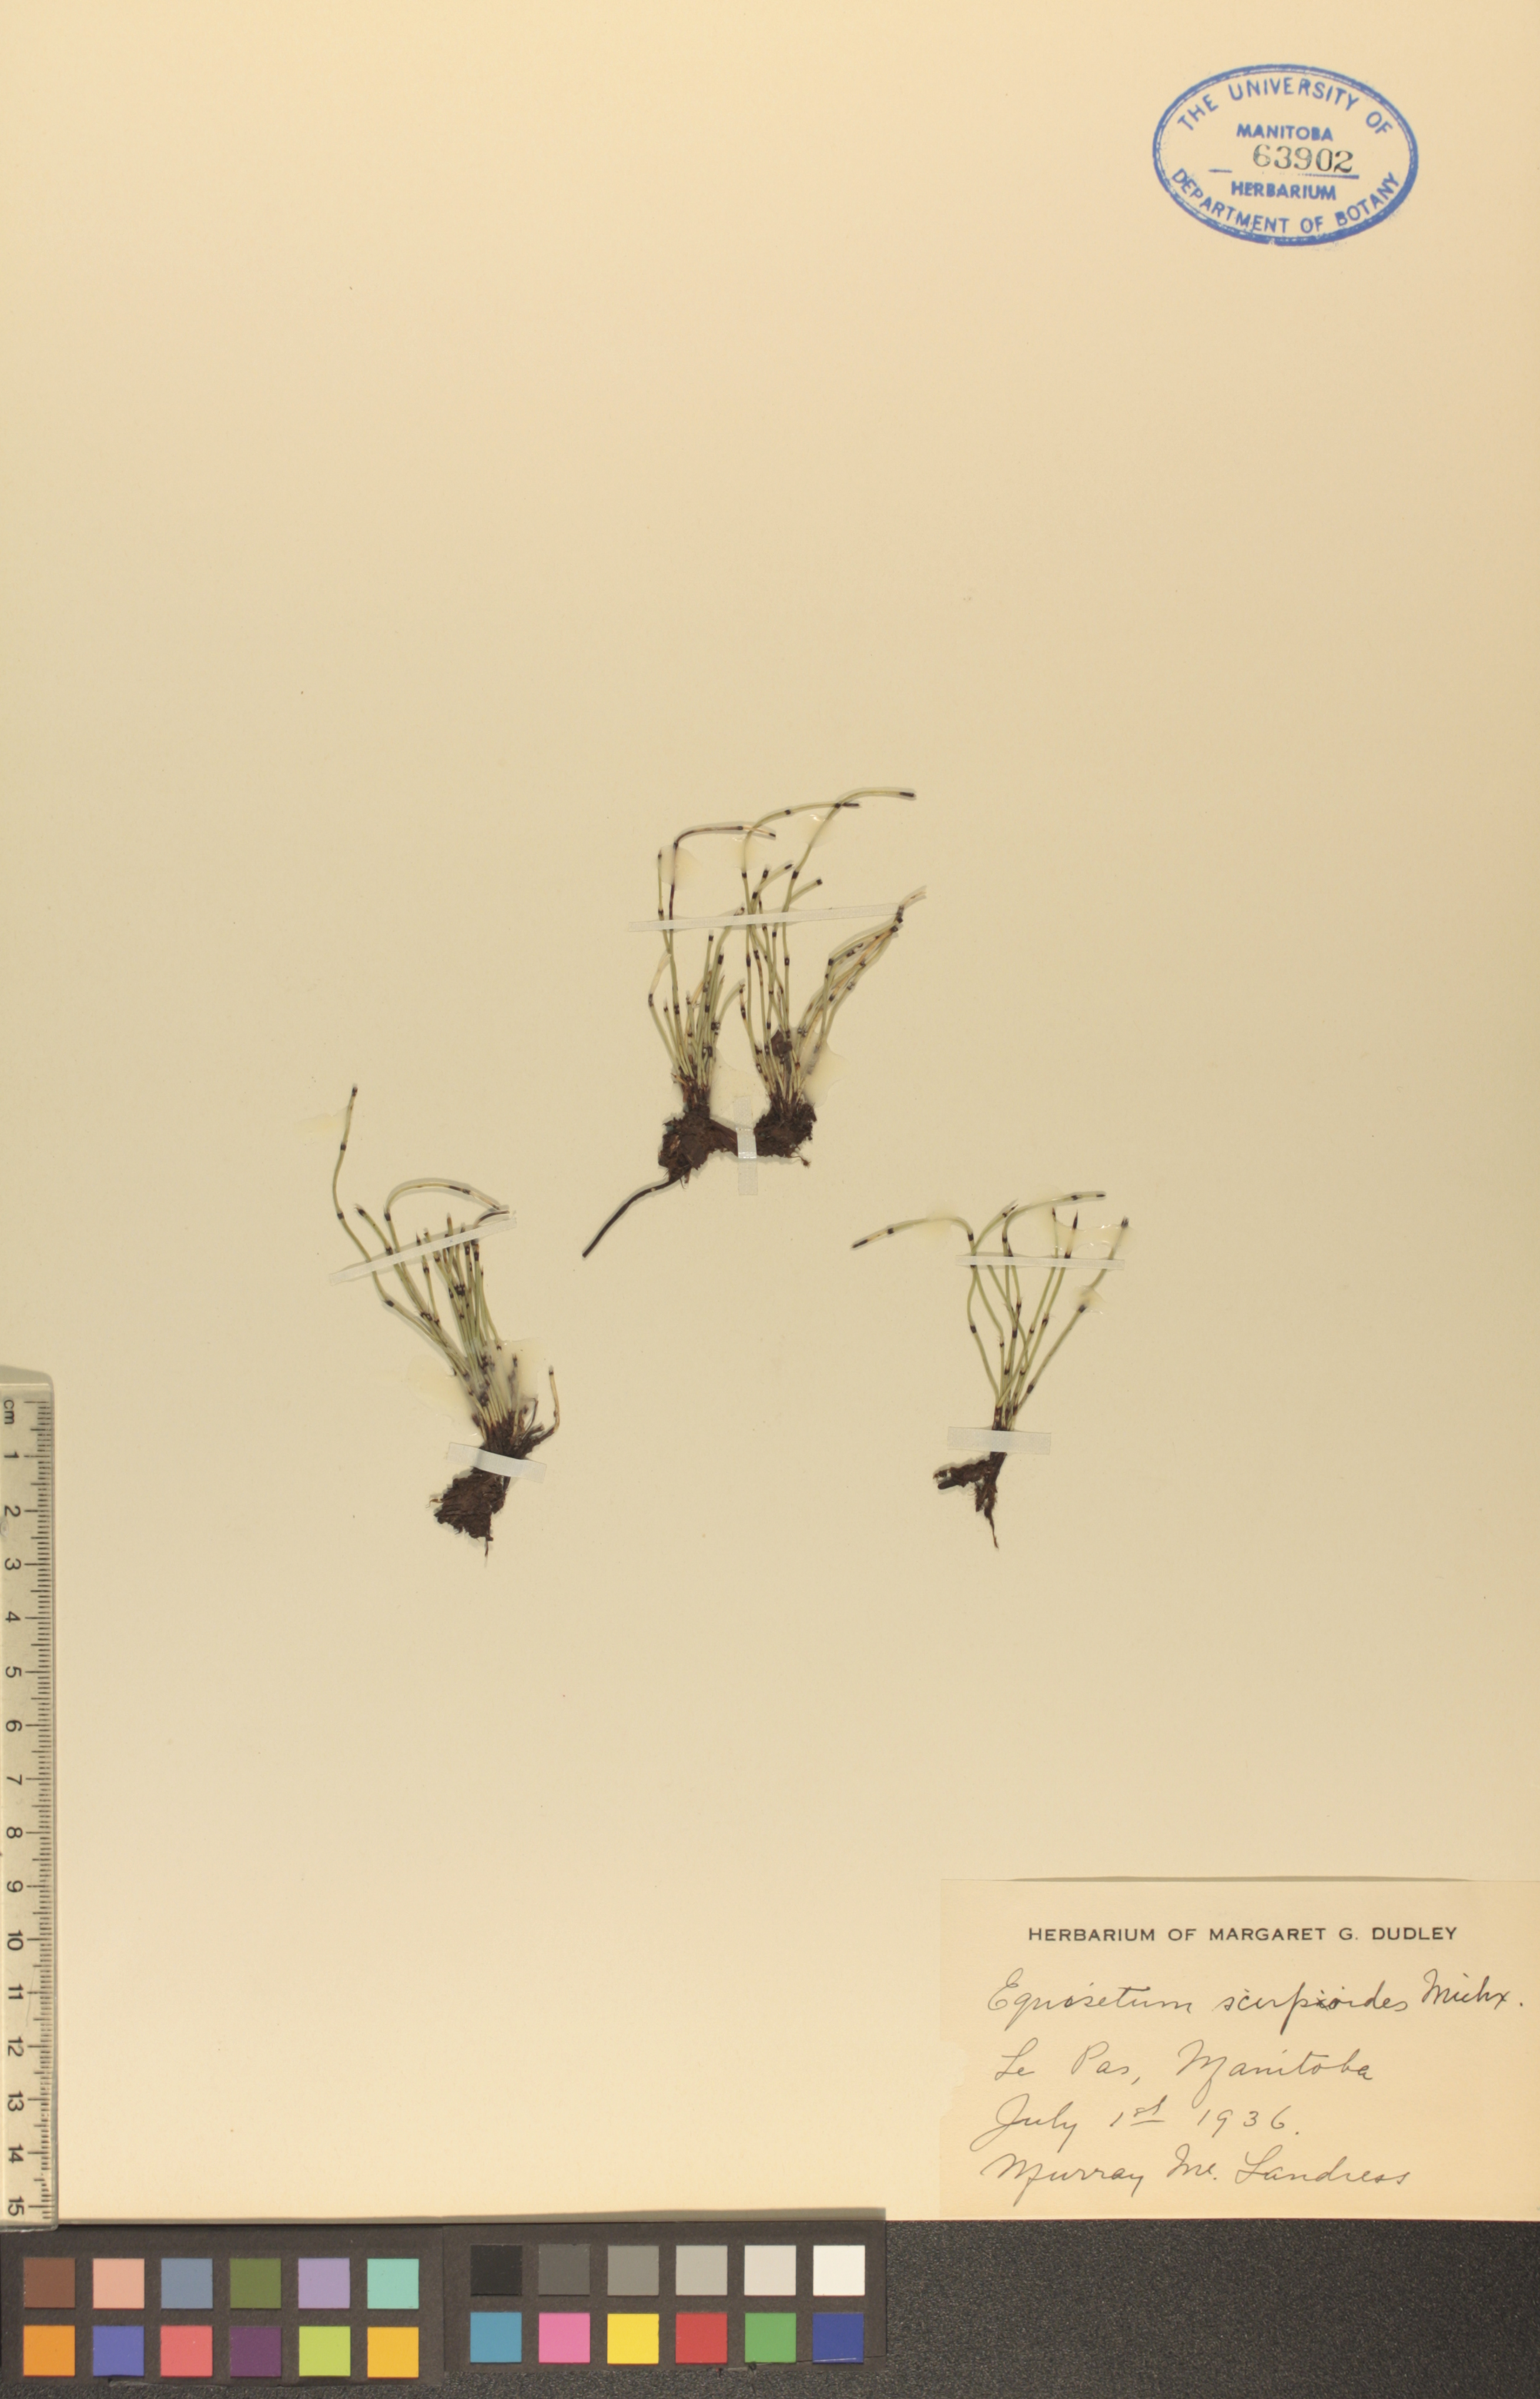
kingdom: Plantae
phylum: Tracheophyta
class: Polypodiopsida
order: Equisetales
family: Equisetaceae
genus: Equisetum
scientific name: Equisetum scirpoides
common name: Delicate horsetail
